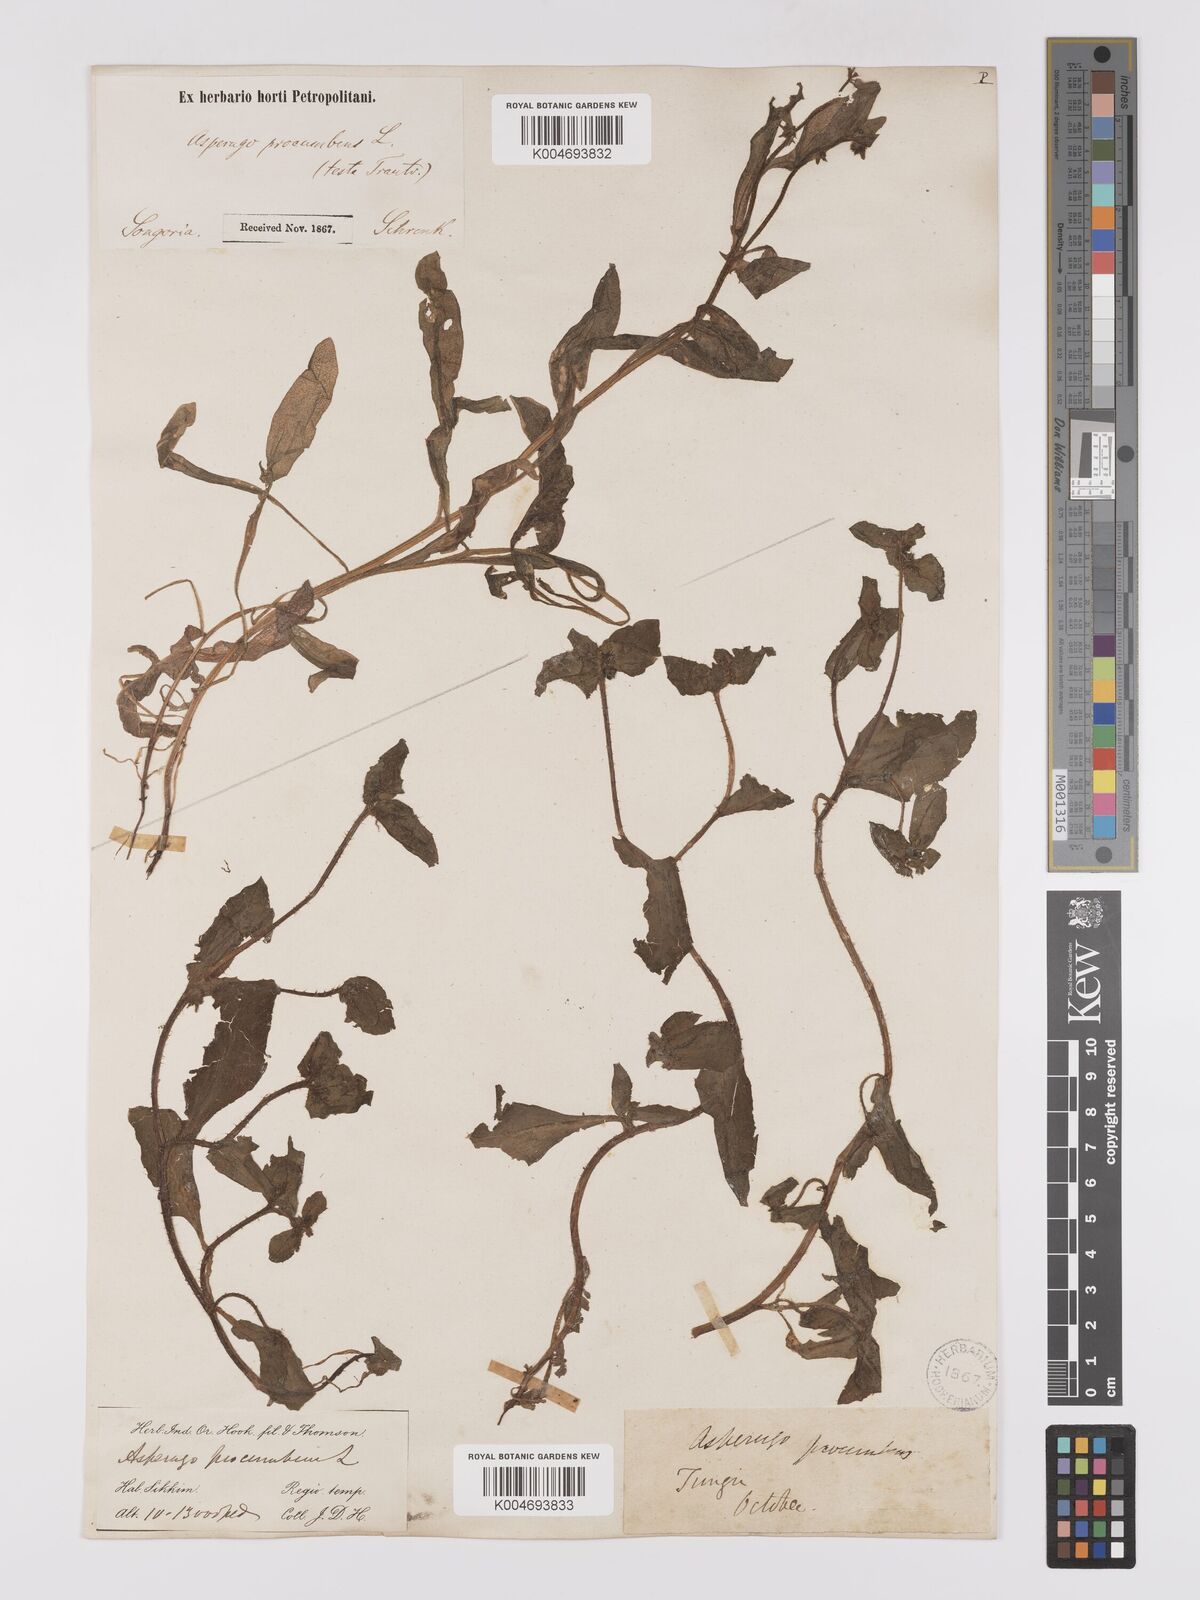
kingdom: Plantae
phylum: Tracheophyta
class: Magnoliopsida
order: Boraginales
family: Boraginaceae
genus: Asperugo
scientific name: Asperugo procumbens
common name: Madwort
